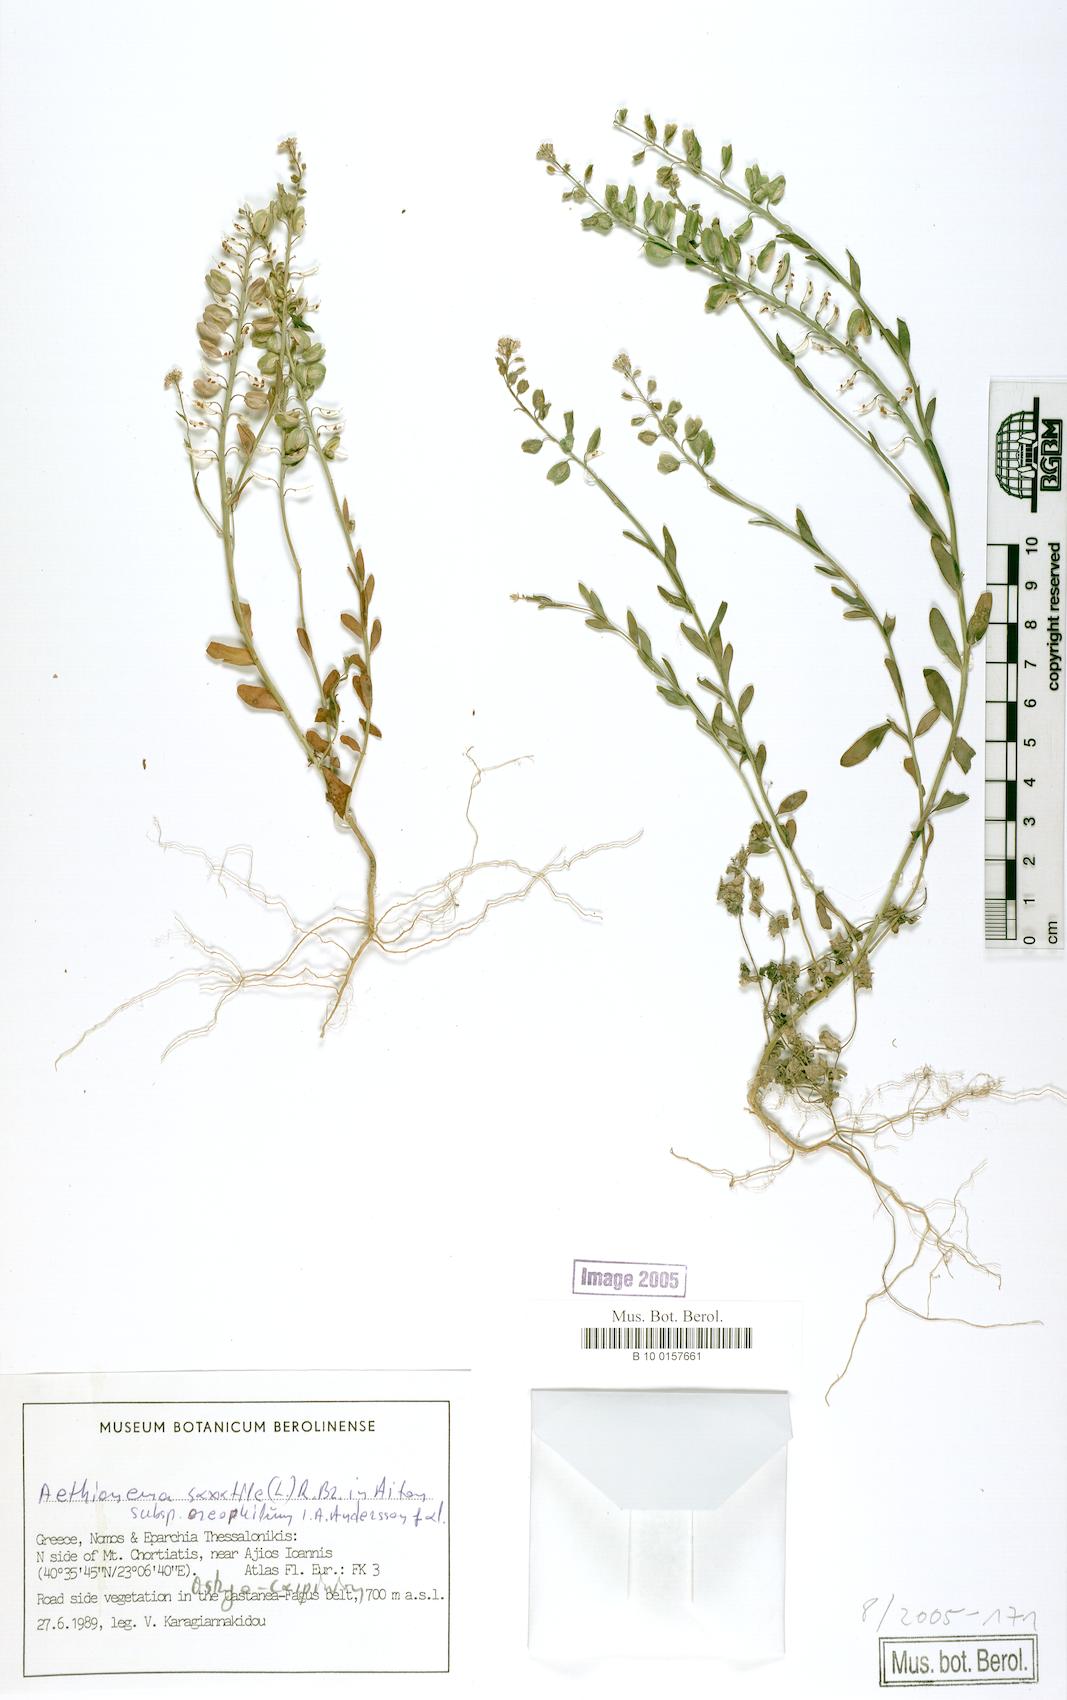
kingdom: Plantae
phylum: Tracheophyta
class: Magnoliopsida
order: Brassicales
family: Brassicaceae
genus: Aethionema
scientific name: Aethionema saxatile
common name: Burnt candytuft
